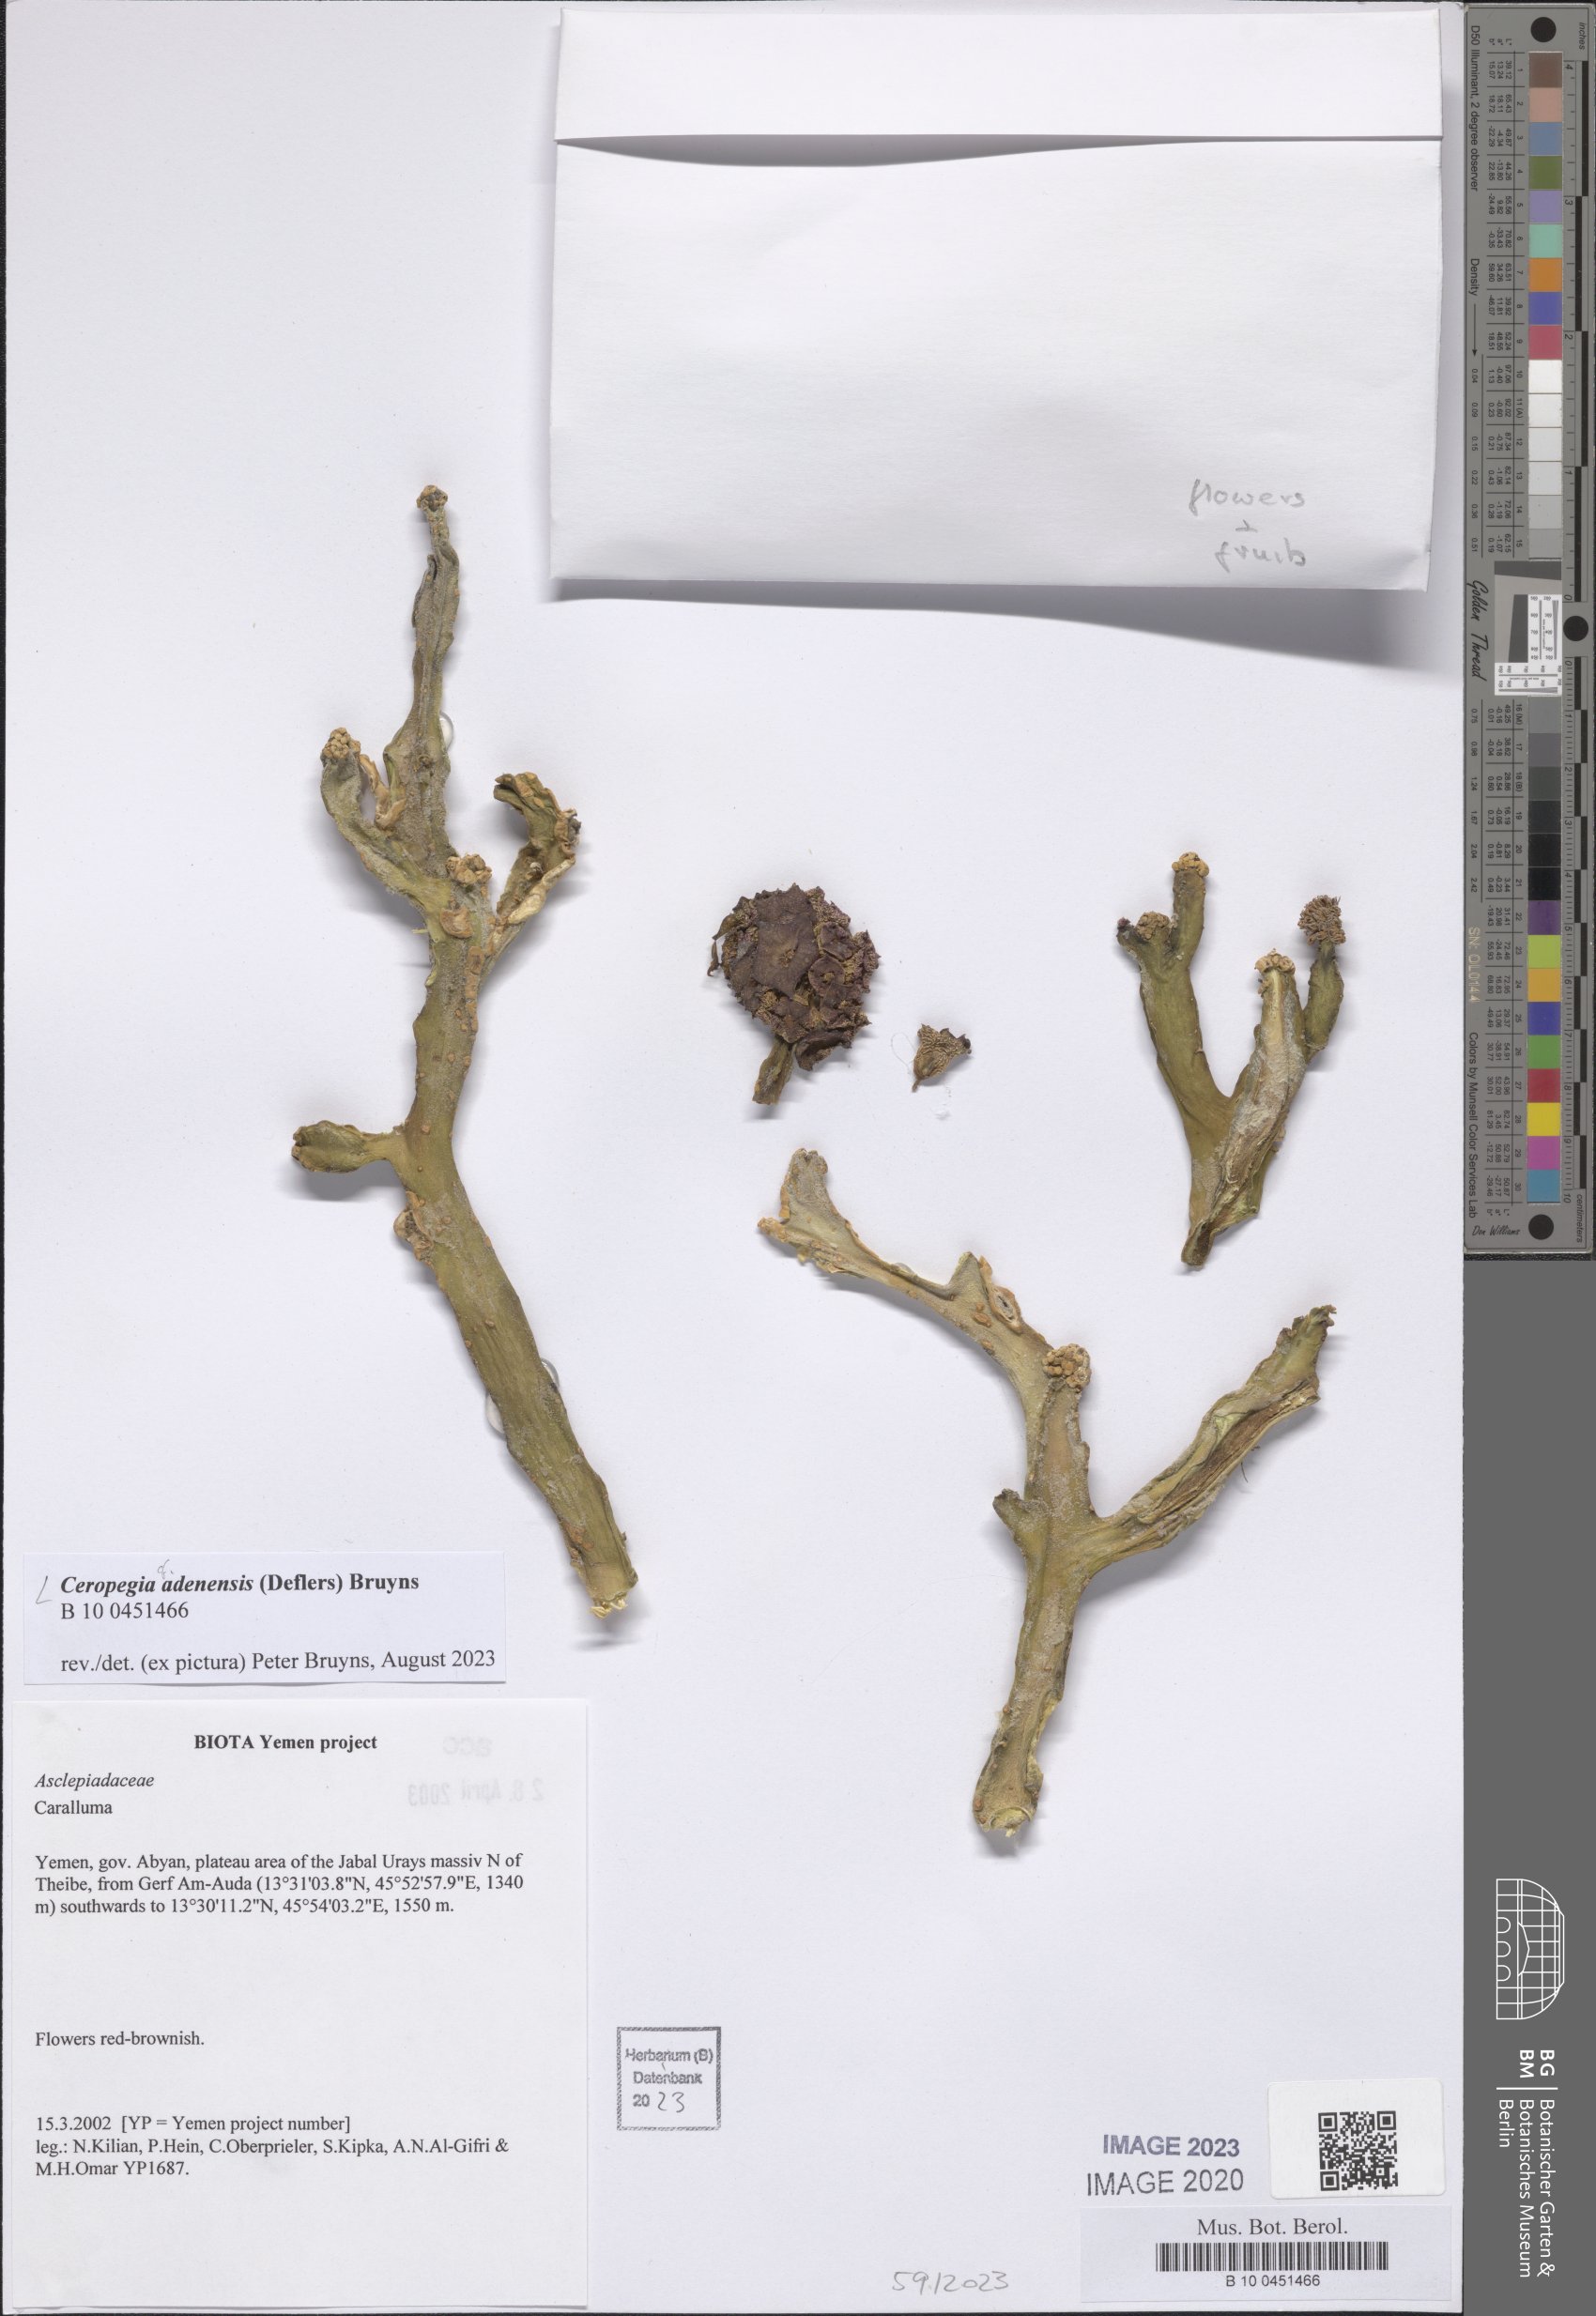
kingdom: Plantae
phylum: Tracheophyta
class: Magnoliopsida
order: Gentianales
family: Apocynaceae
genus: Ceropegia
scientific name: Ceropegia adenensis
